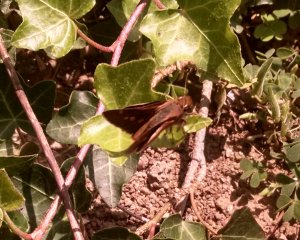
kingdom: Animalia
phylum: Arthropoda
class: Insecta
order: Lepidoptera
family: Hesperiidae
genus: Lon
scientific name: Lon melane
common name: Umber Skipper
